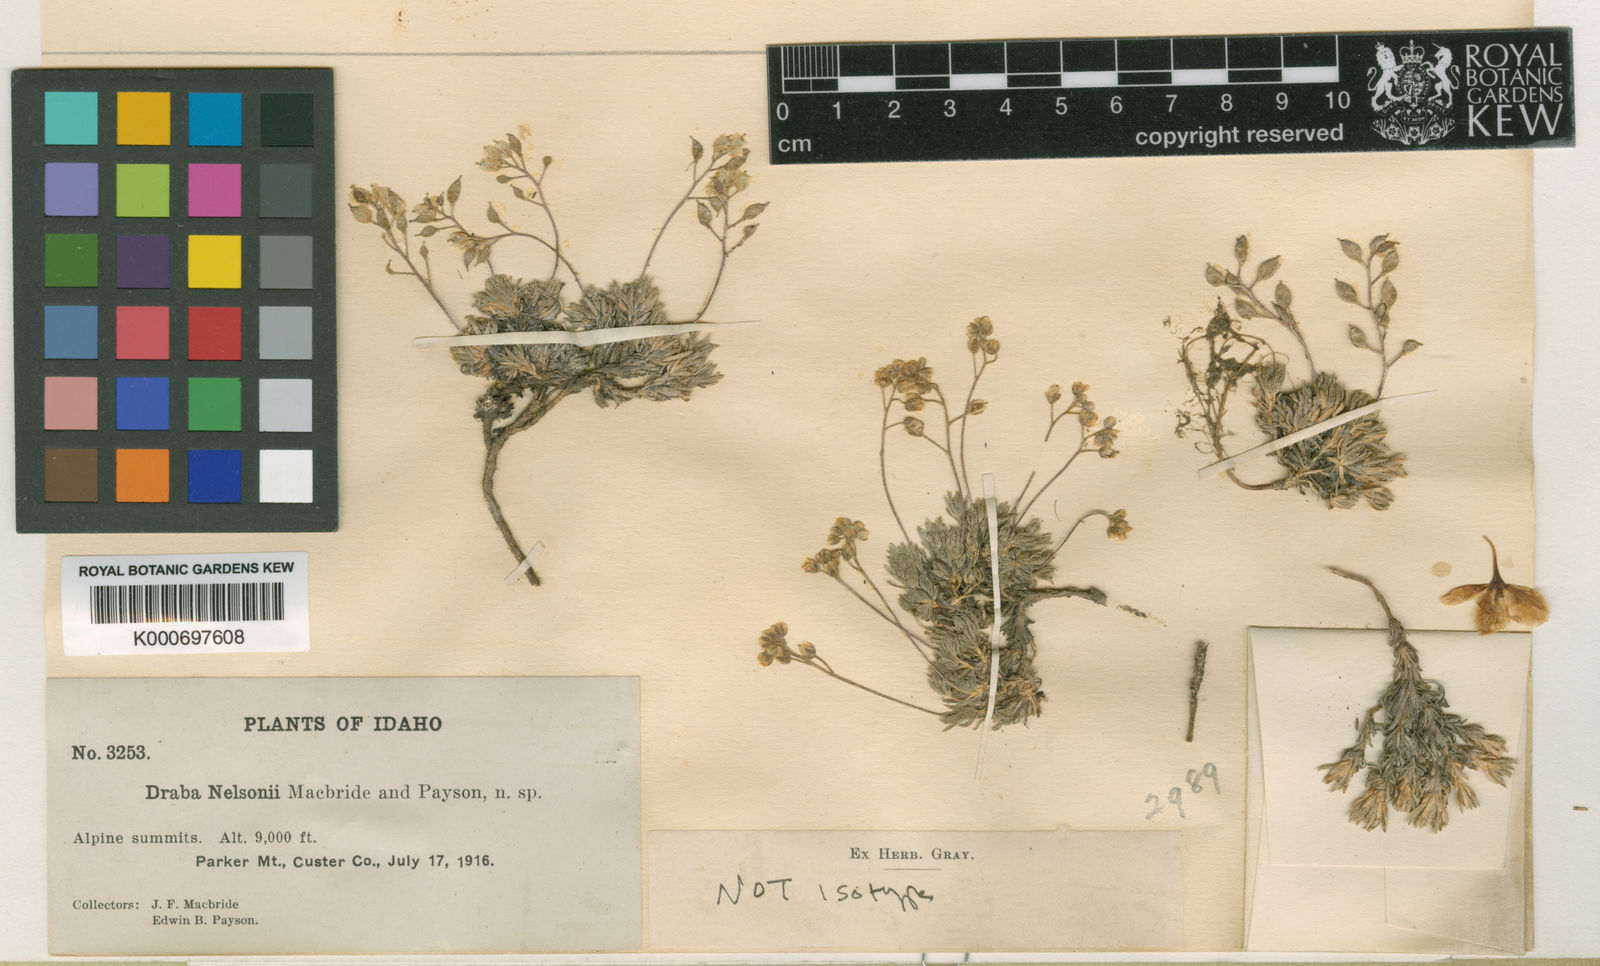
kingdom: Plantae
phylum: Tracheophyta
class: Magnoliopsida
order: Brassicales
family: Brassicaceae
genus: Draba
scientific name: Draba densifolia
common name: Nuttall's draba
